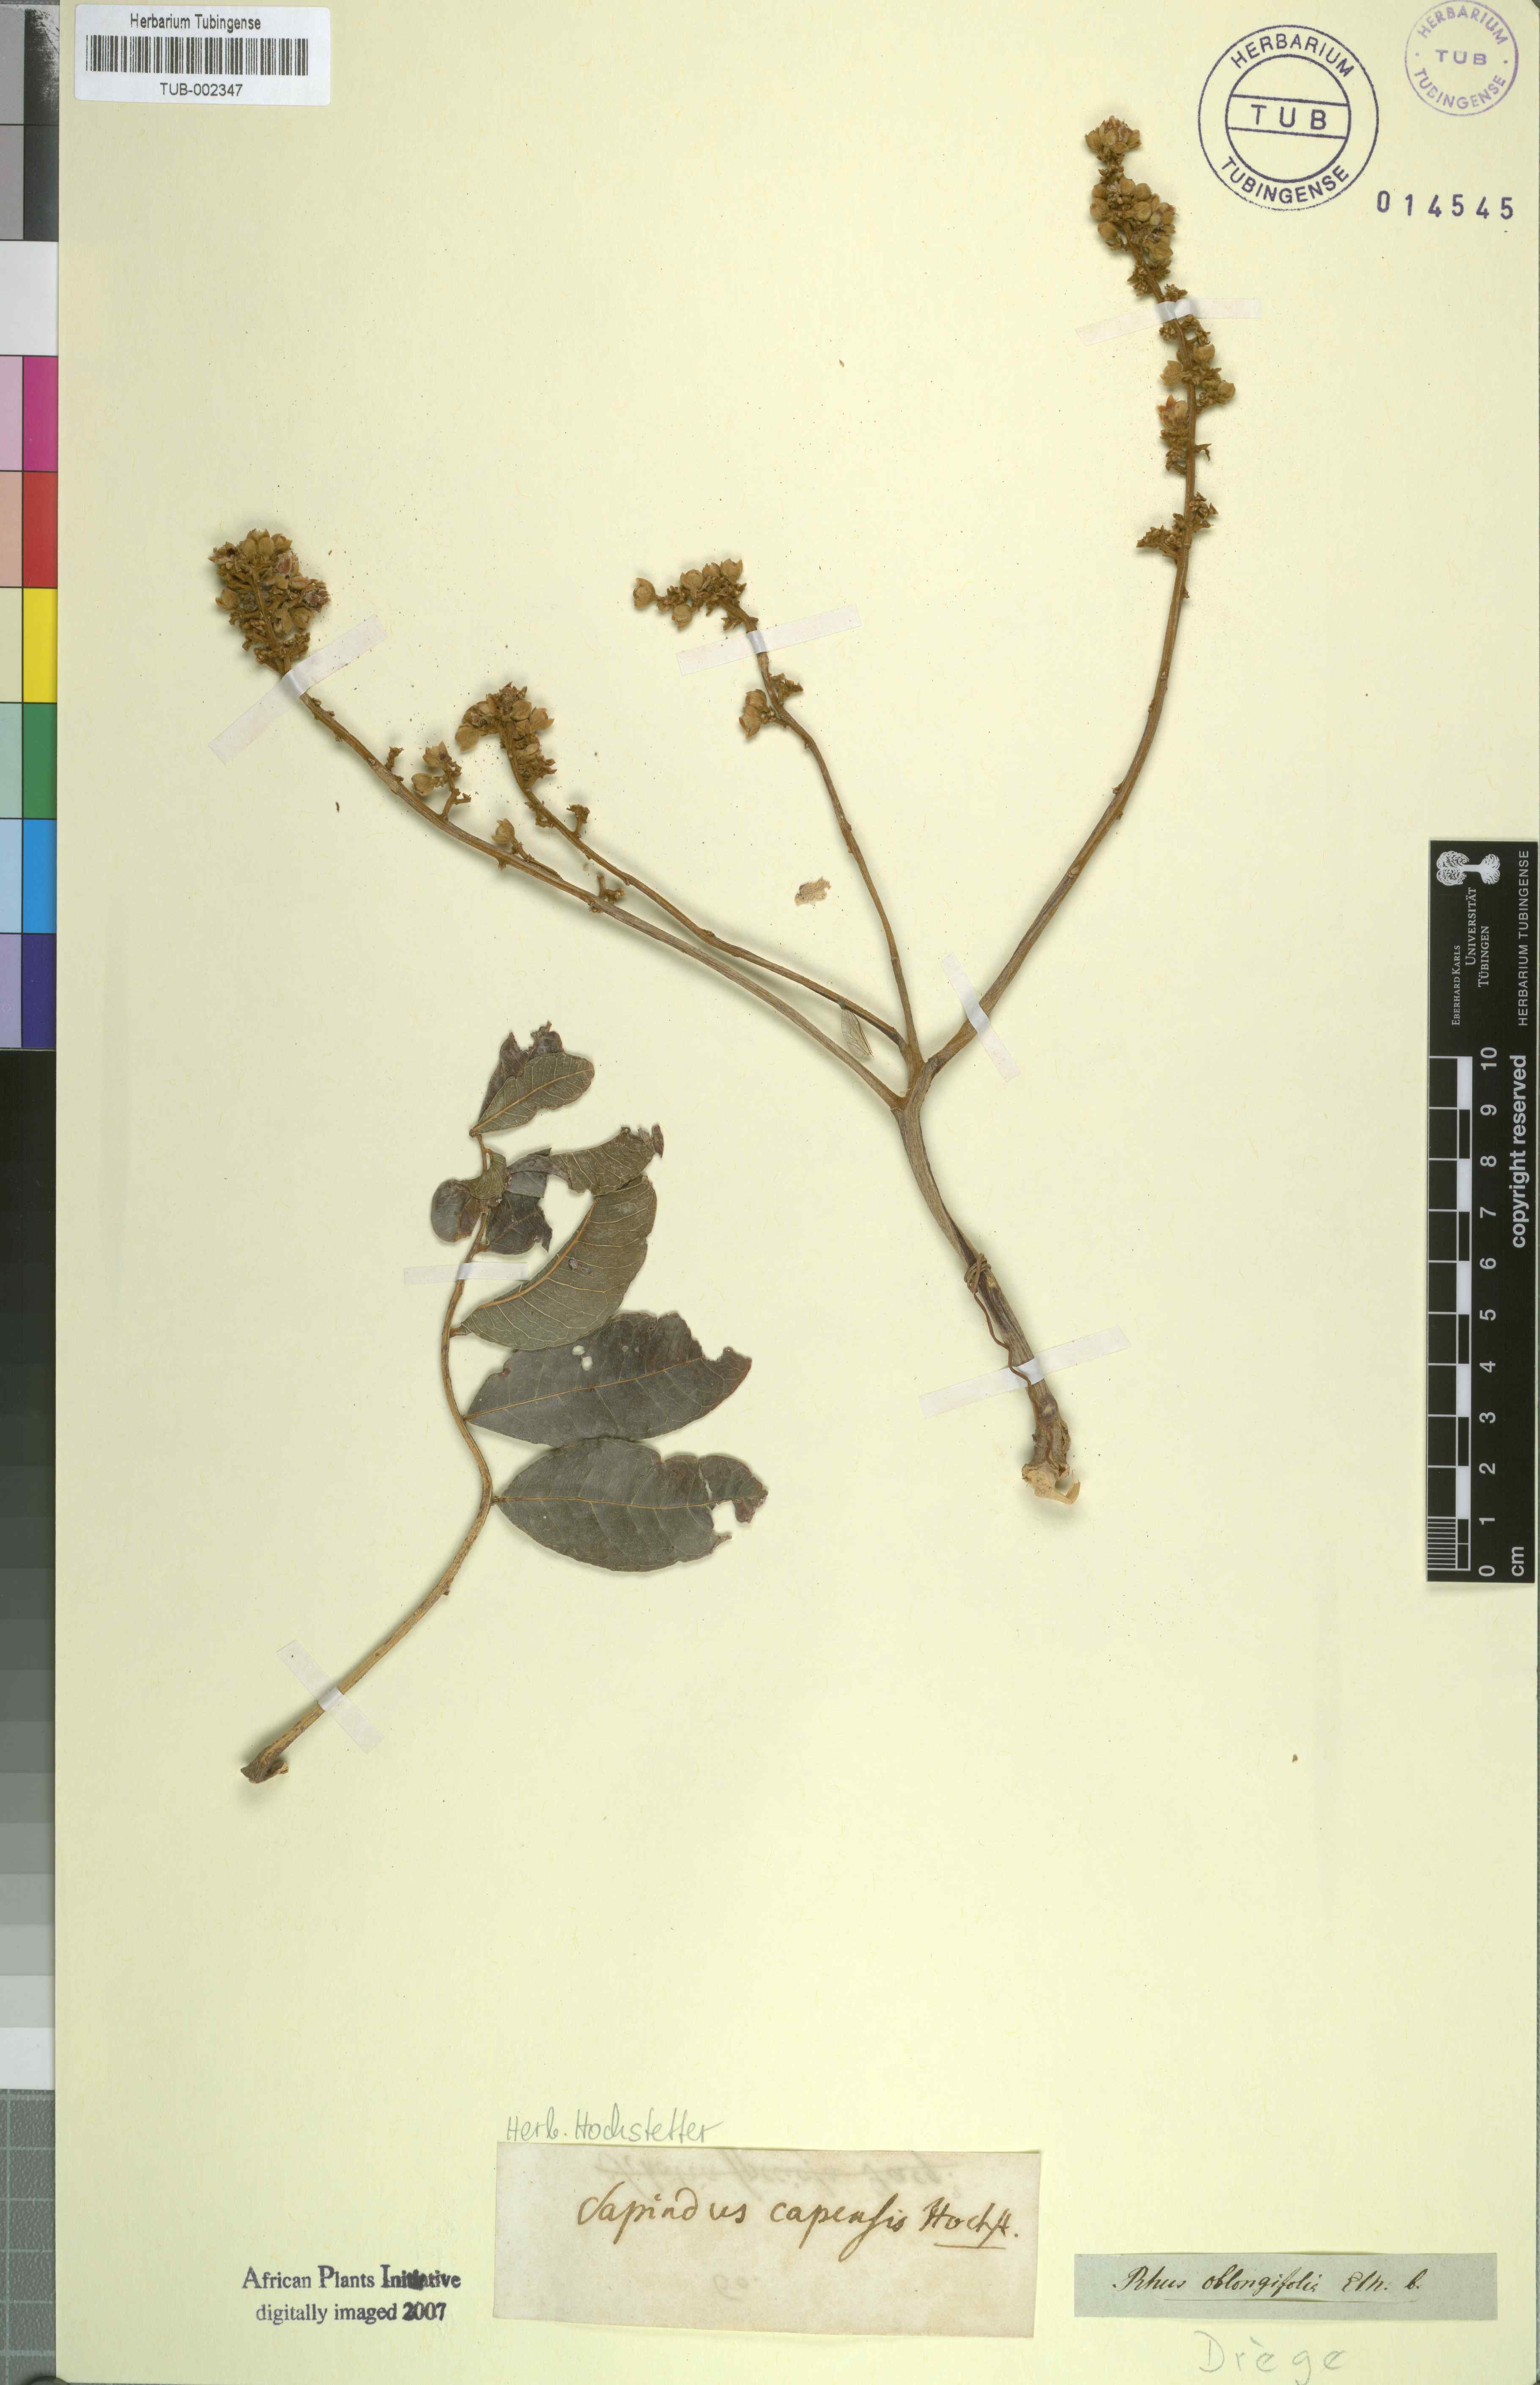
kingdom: Plantae
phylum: Tracheophyta
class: Magnoliopsida
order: Sapindales
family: Sapindaceae
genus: Deinbollia
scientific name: Deinbollia oblongifolia
